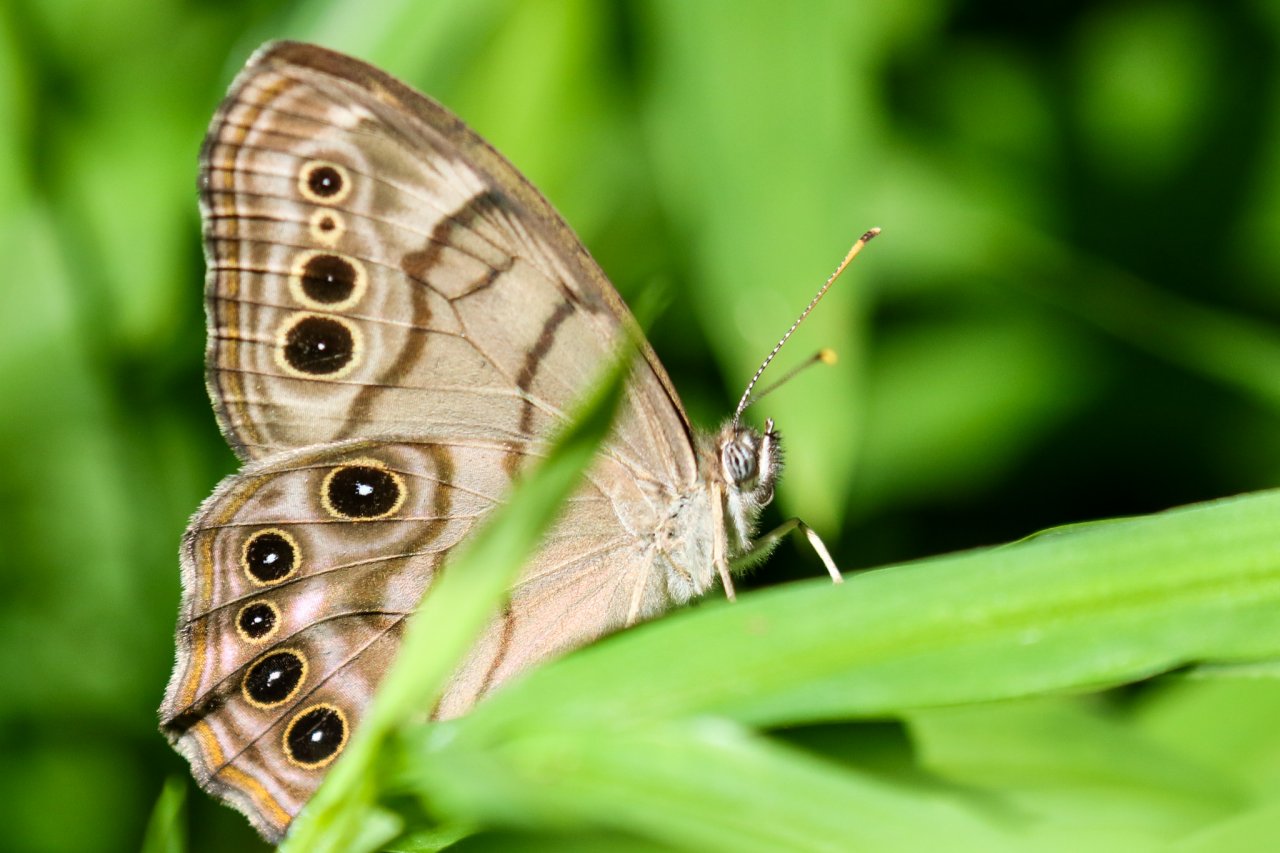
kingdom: Animalia
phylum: Arthropoda
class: Insecta
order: Lepidoptera
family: Nymphalidae
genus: Lethe
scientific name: Lethe anthedon
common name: Northern Pearly-Eye
